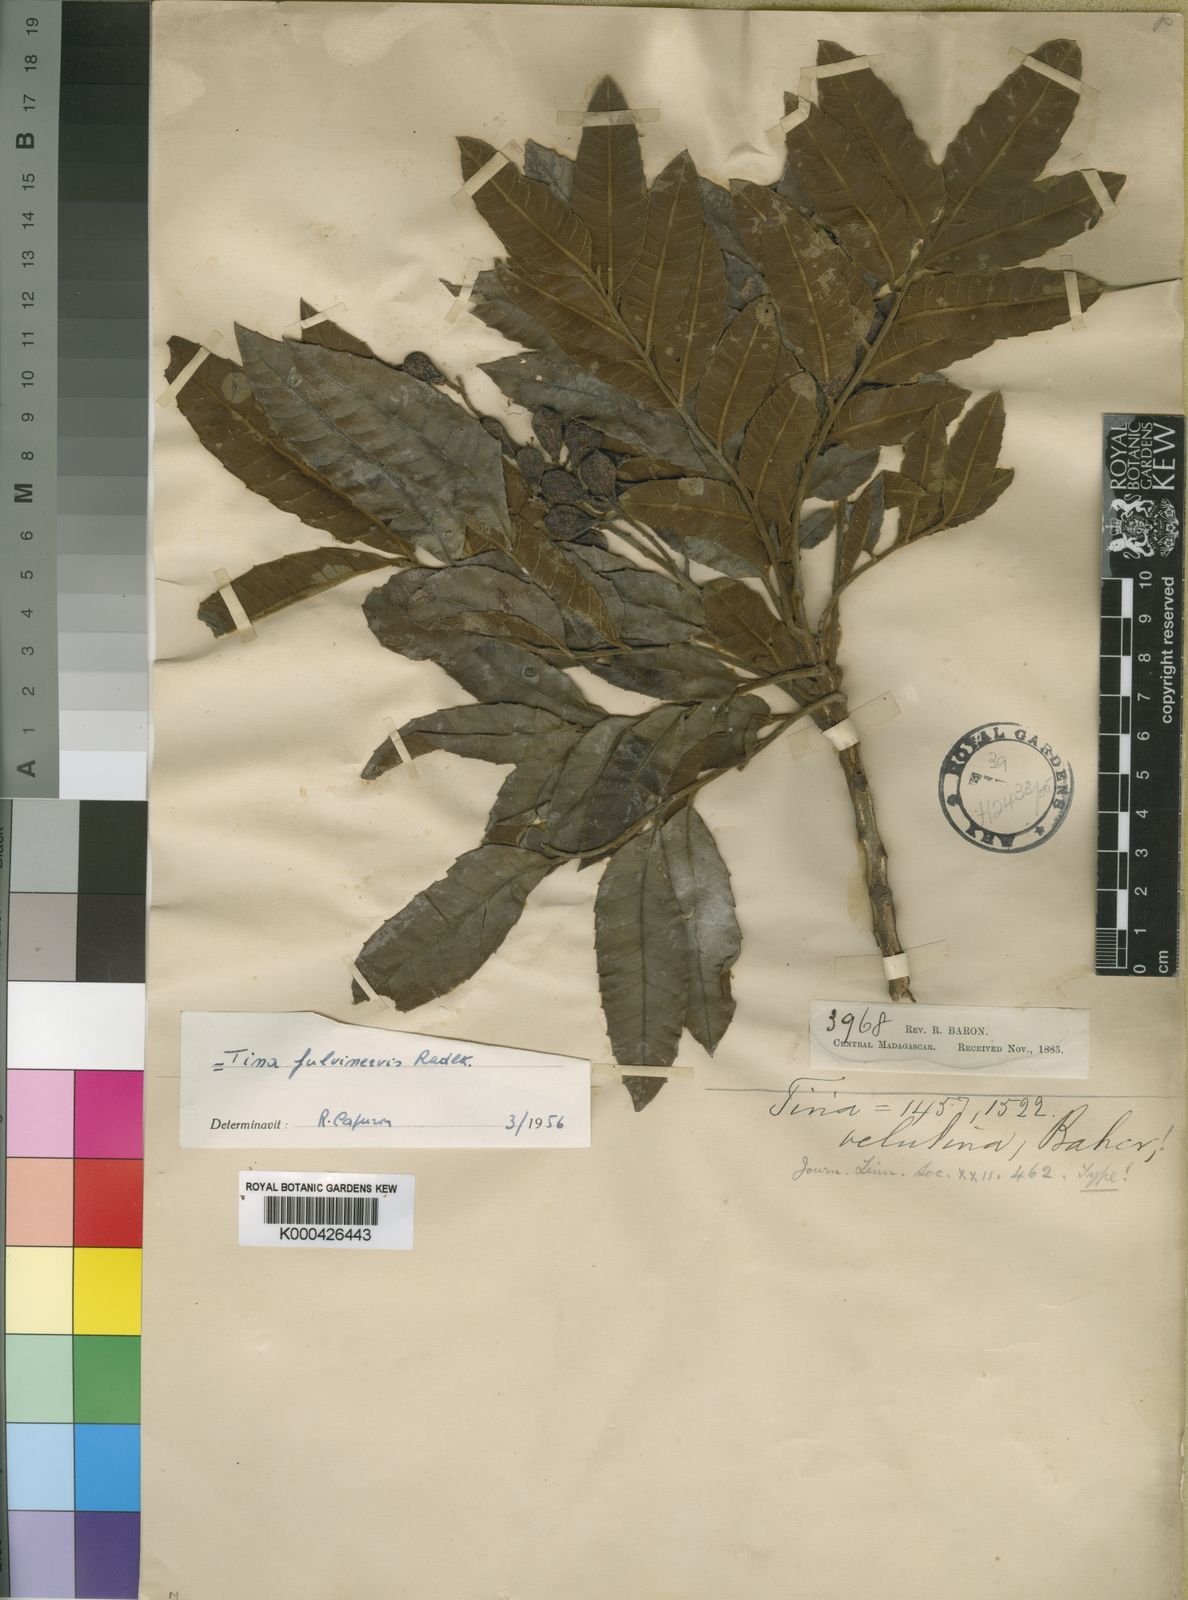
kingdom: Plantae
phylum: Tracheophyta
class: Magnoliopsida
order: Sapindales
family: Sapindaceae
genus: Tina
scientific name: Tina fulvinervis
